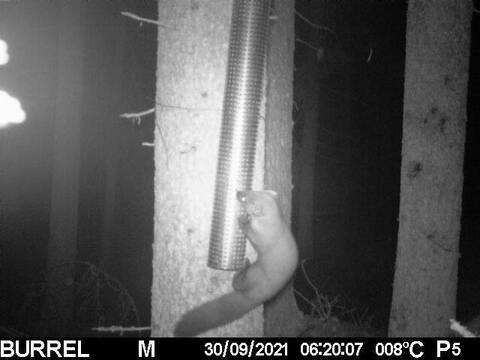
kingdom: Animalia
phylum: Chordata
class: Mammalia
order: Carnivora
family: Mustelidae
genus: Martes
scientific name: Martes martes
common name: European pine marten
